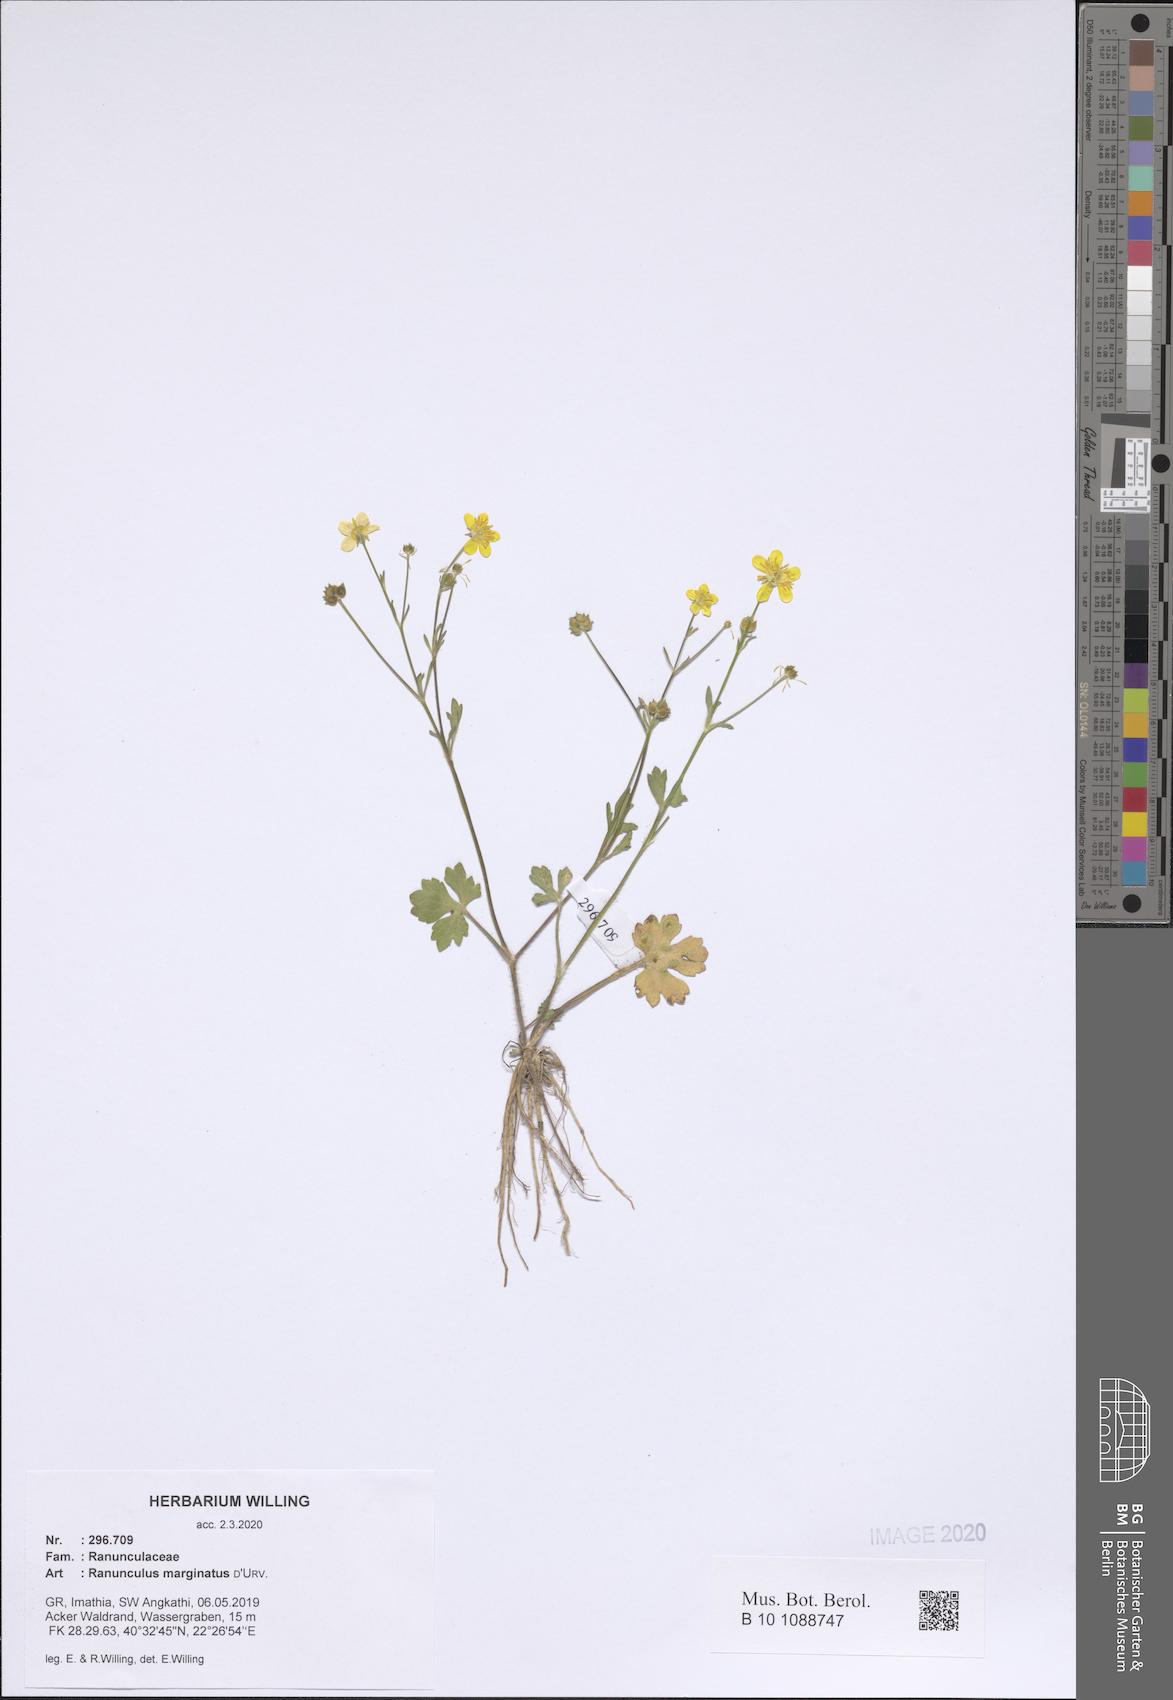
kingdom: Plantae
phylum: Tracheophyta
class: Magnoliopsida
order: Ranunculales
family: Ranunculaceae
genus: Ranunculus
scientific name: Ranunculus marginatus
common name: St. martin's buttercup
